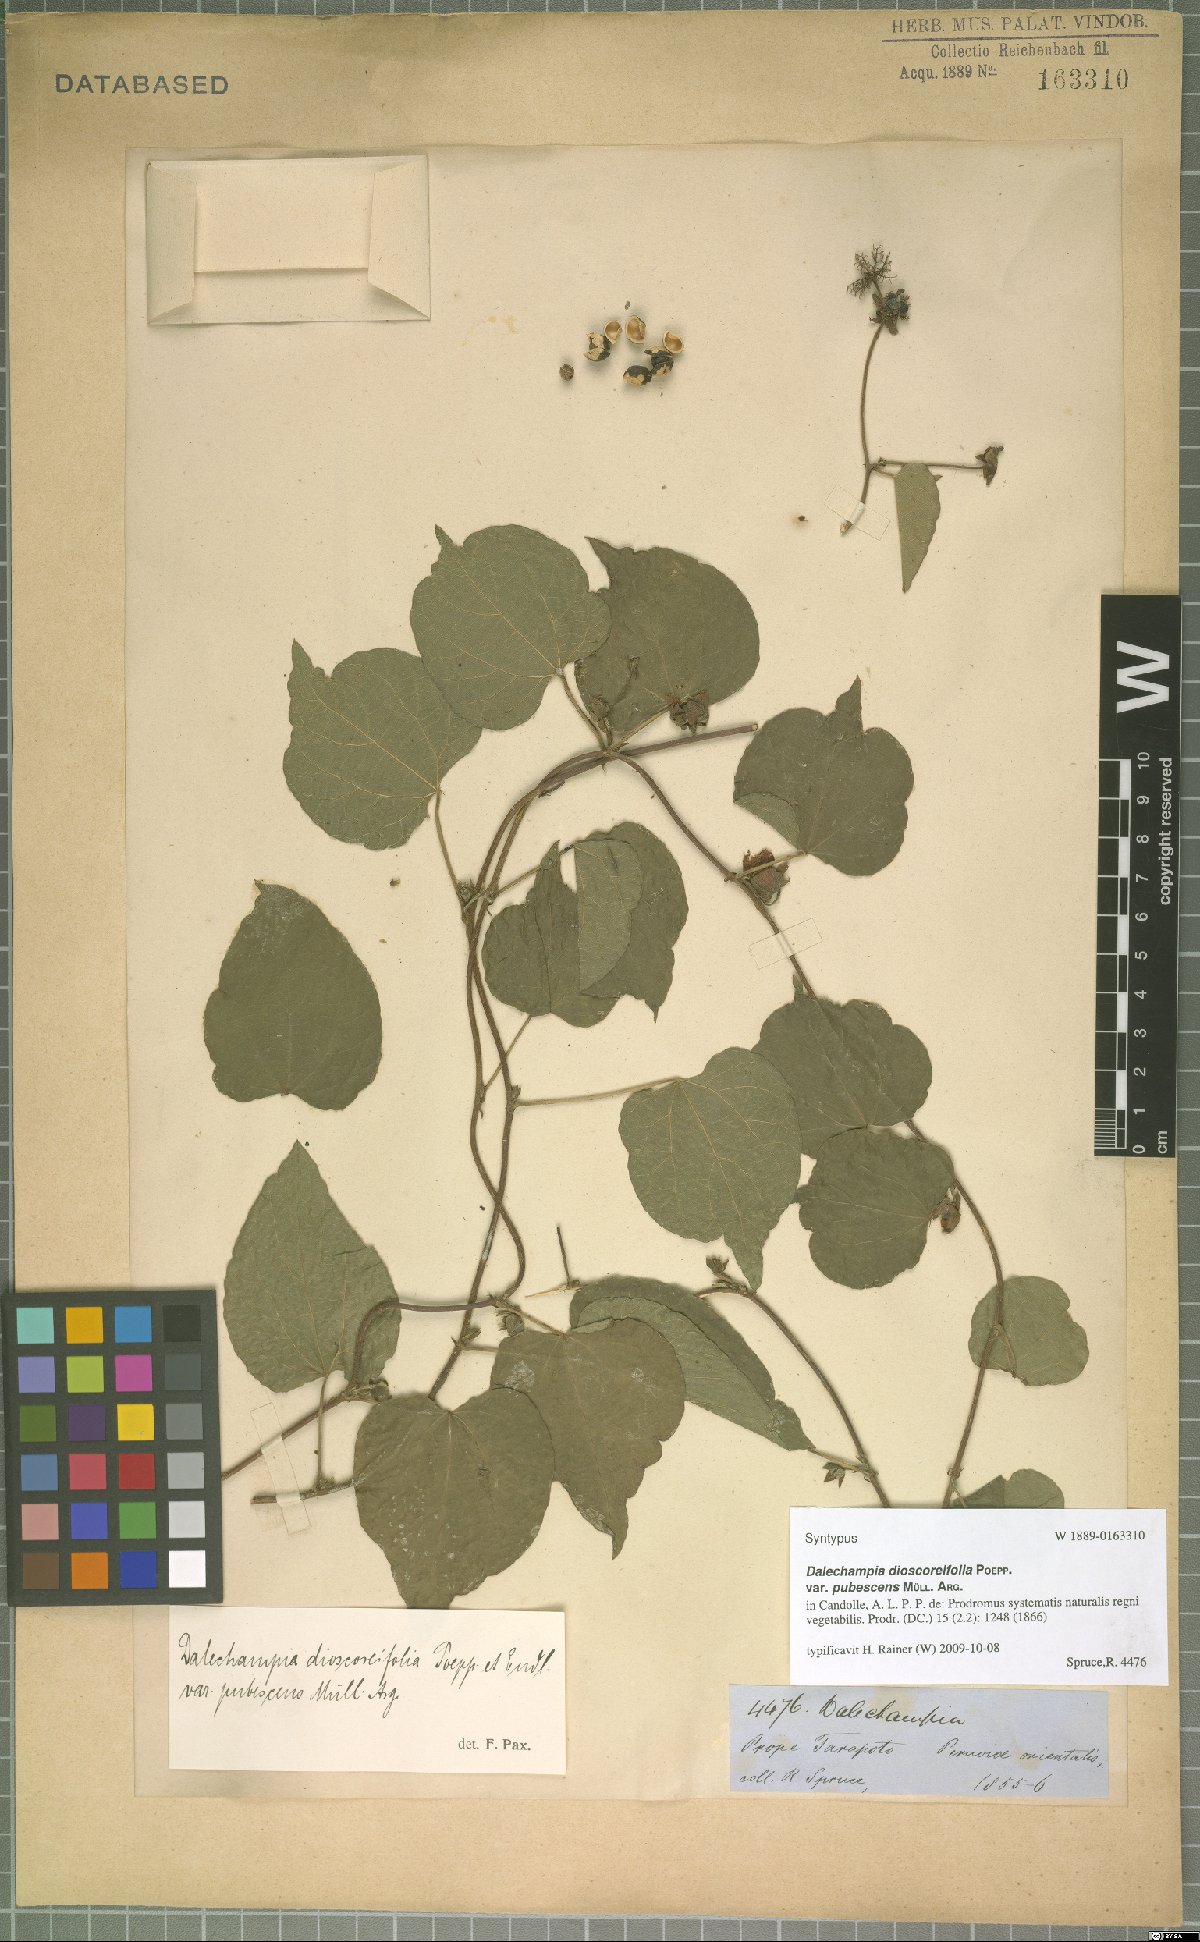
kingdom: Plantae
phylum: Tracheophyta
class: Magnoliopsida
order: Malpighiales
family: Euphorbiaceae
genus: Dalechampia
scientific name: Dalechampia dioscoreifolia
